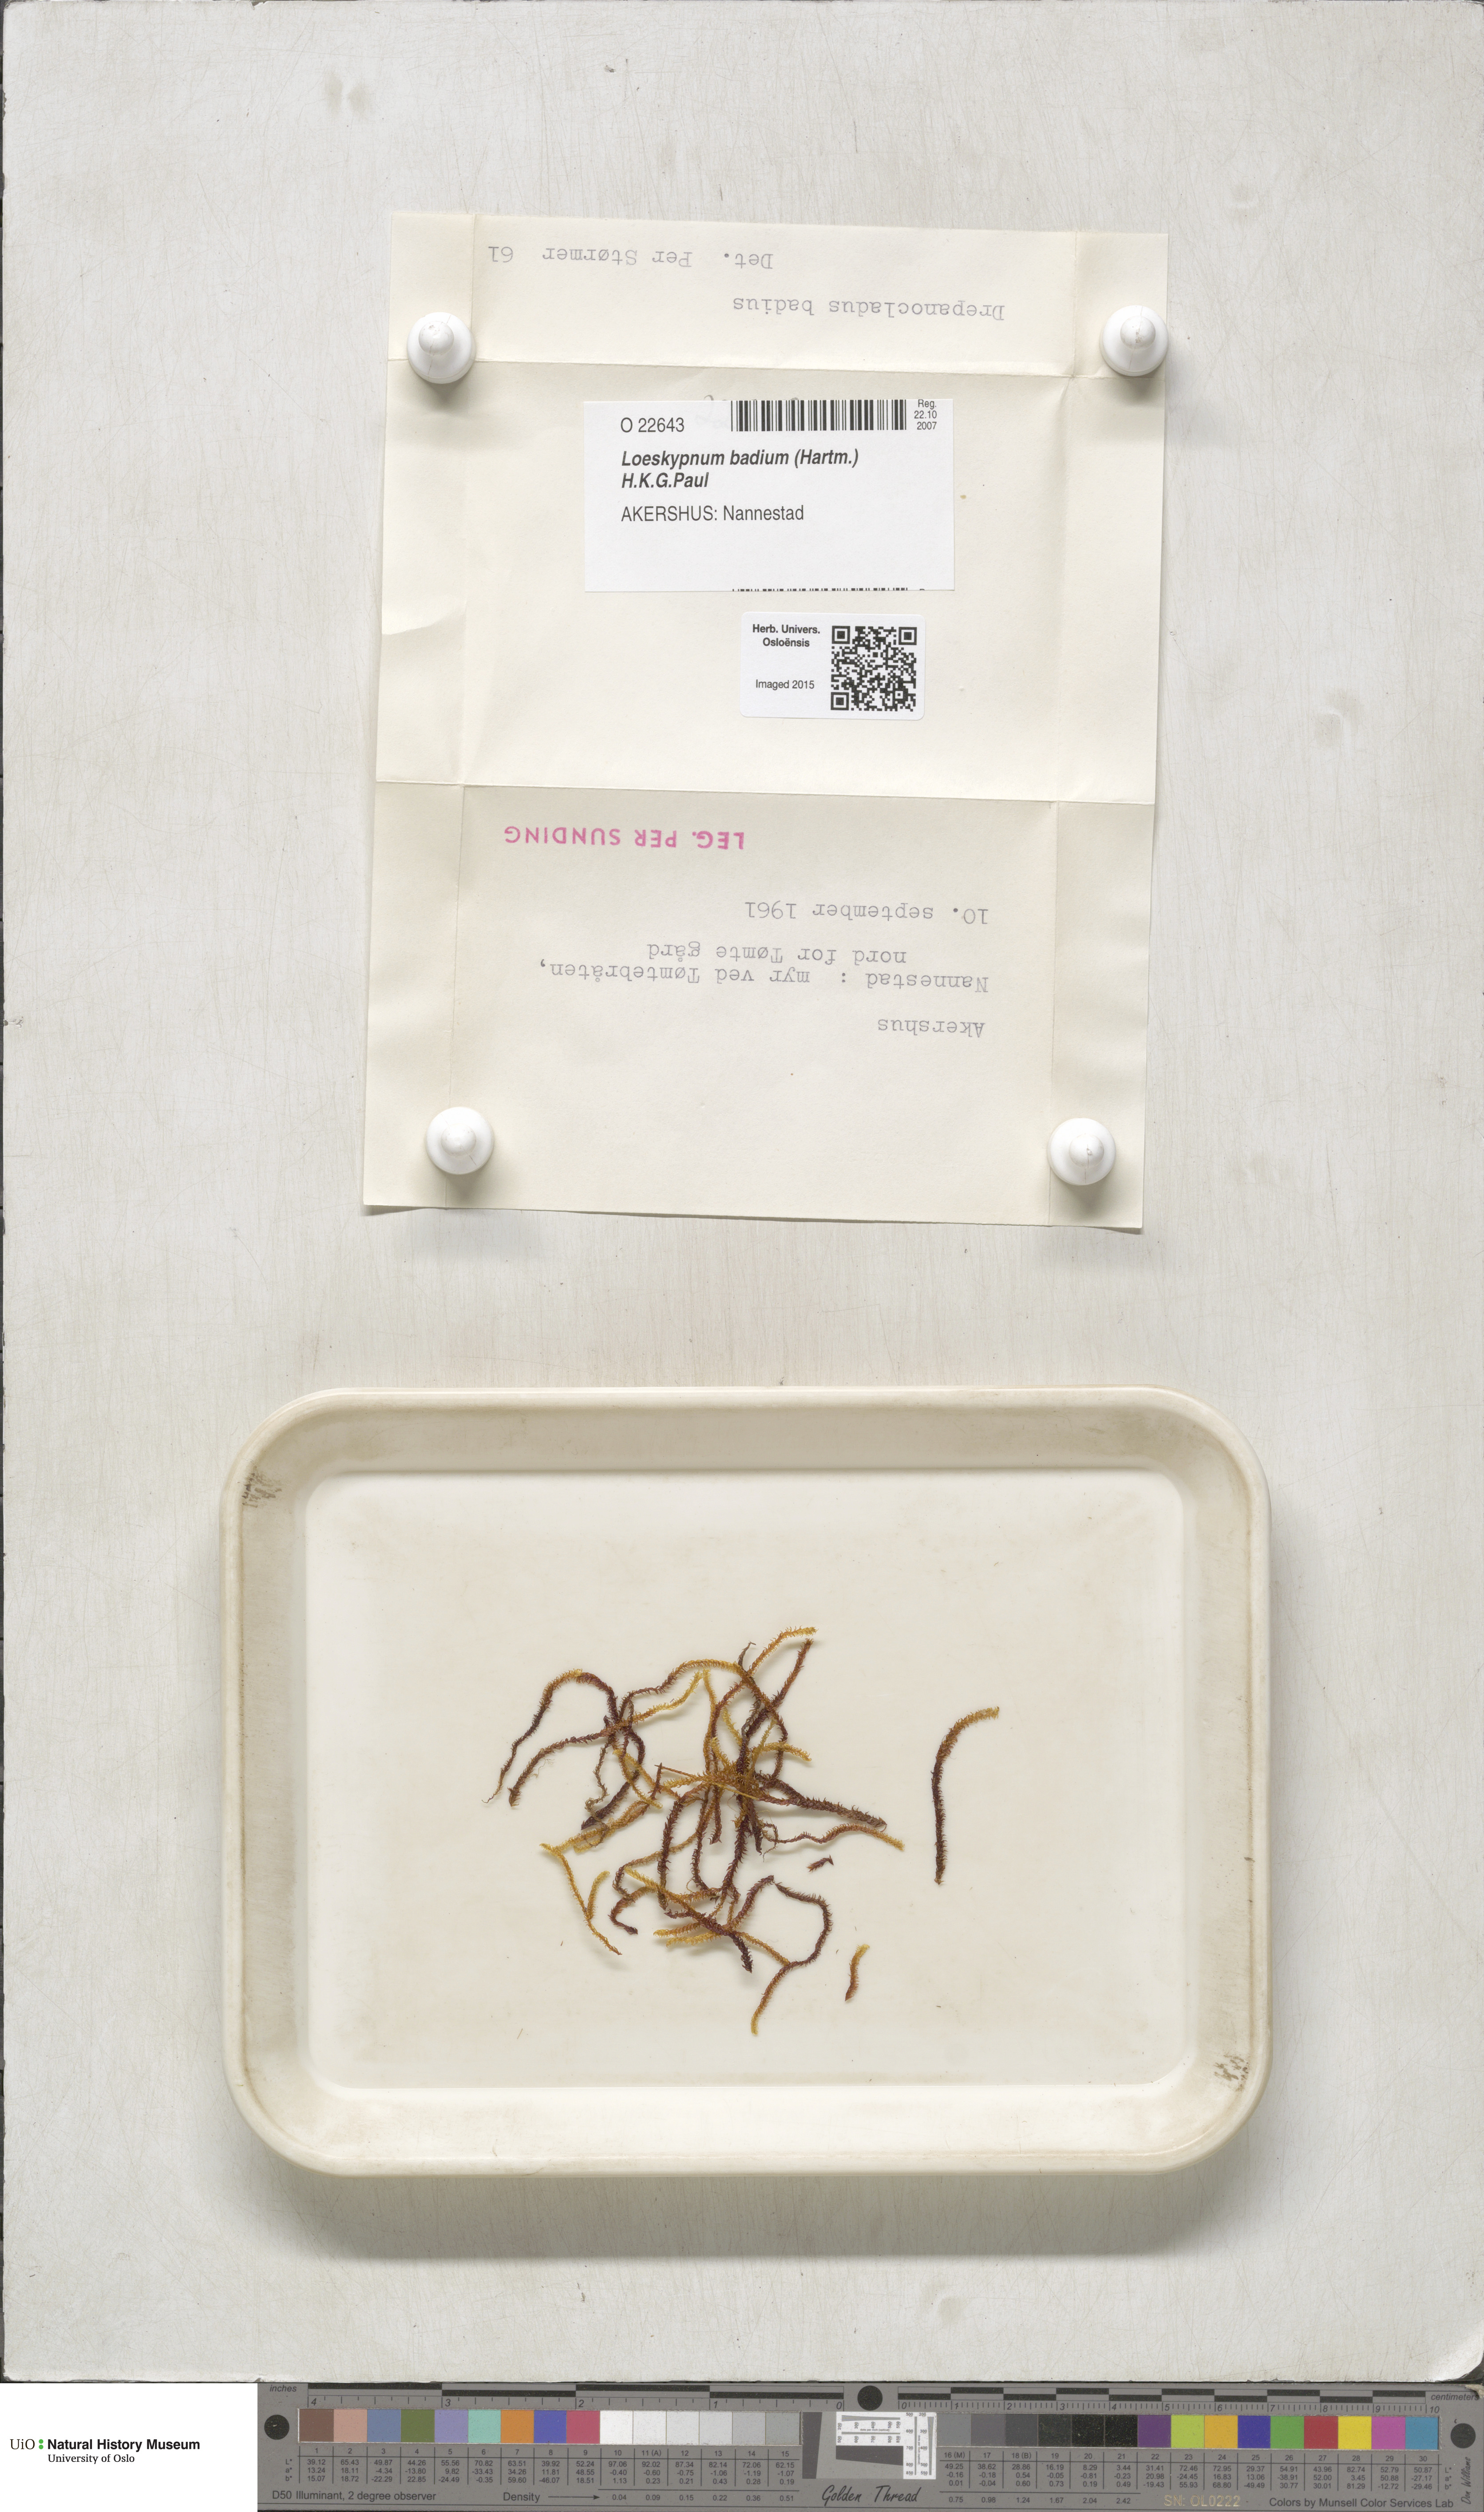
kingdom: Plantae
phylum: Bryophyta
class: Bryopsida
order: Hypnales
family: Calliergonaceae
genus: Loeskypnum
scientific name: Loeskypnum badium
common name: Sickle-leaved loeskypnum
